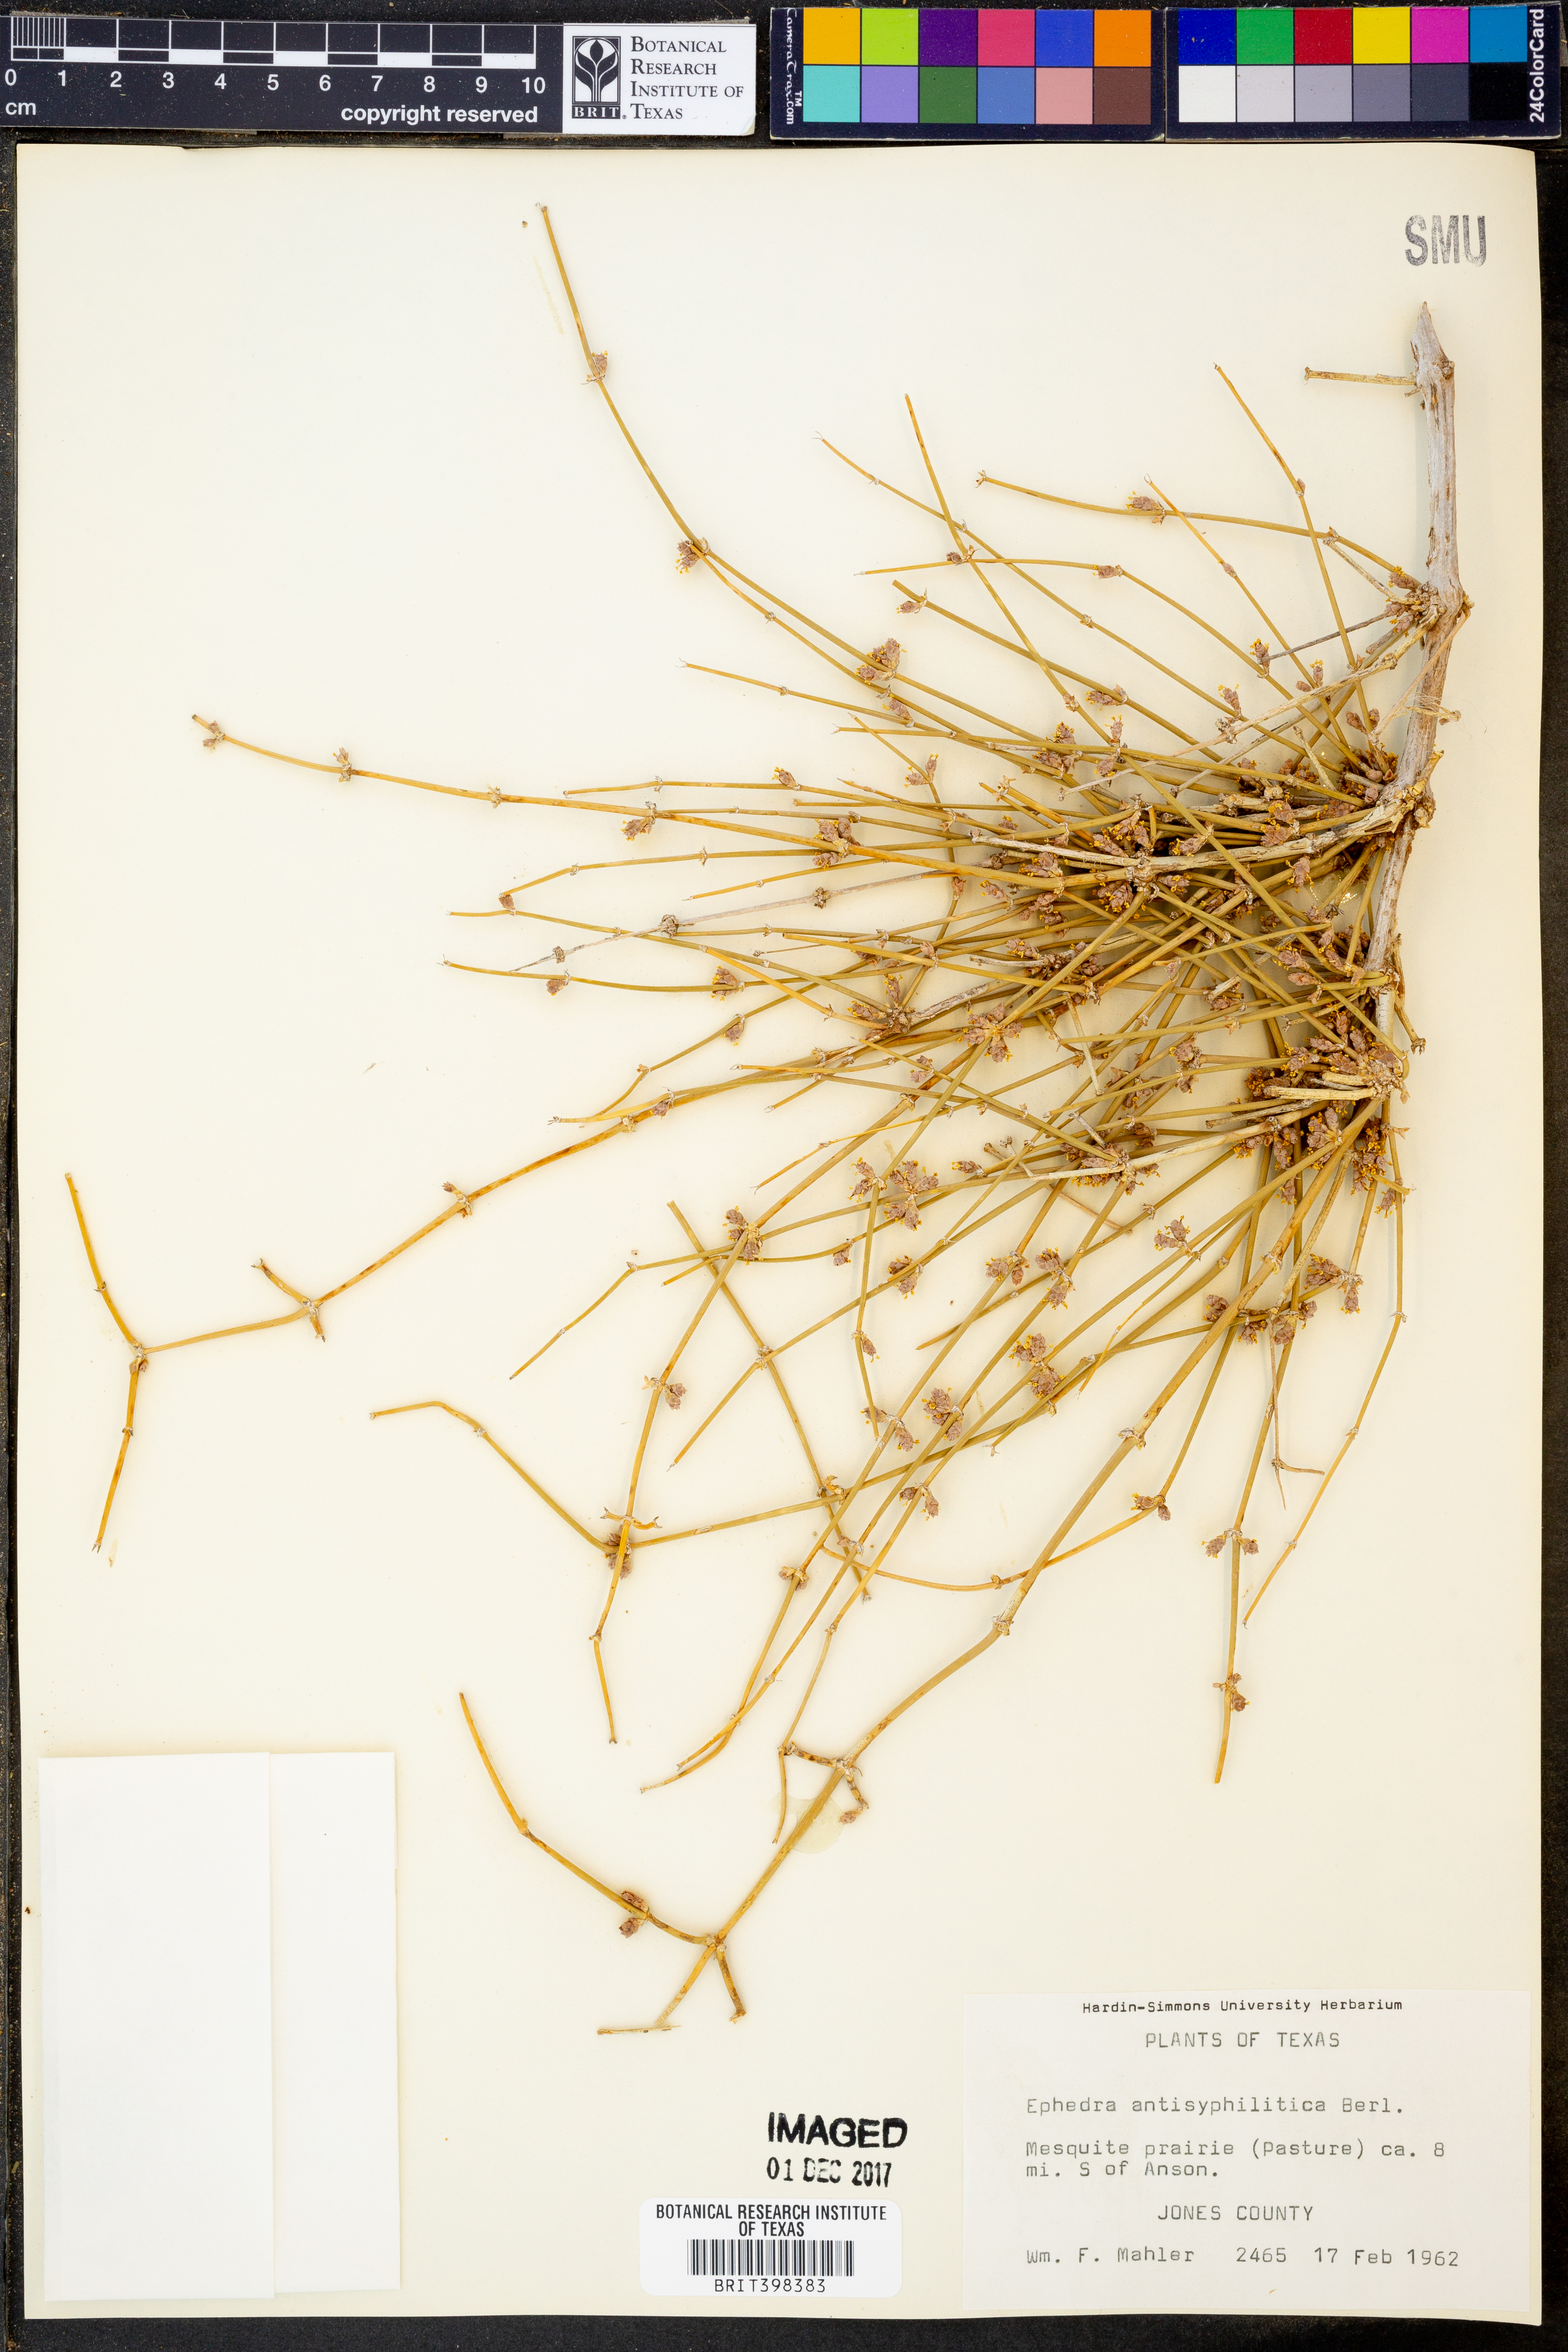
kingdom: Plantae
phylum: Tracheophyta
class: Gnetopsida
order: Ephedrales
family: Ephedraceae
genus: Ephedra
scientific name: Ephedra antisyphilitica
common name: Clipweed
